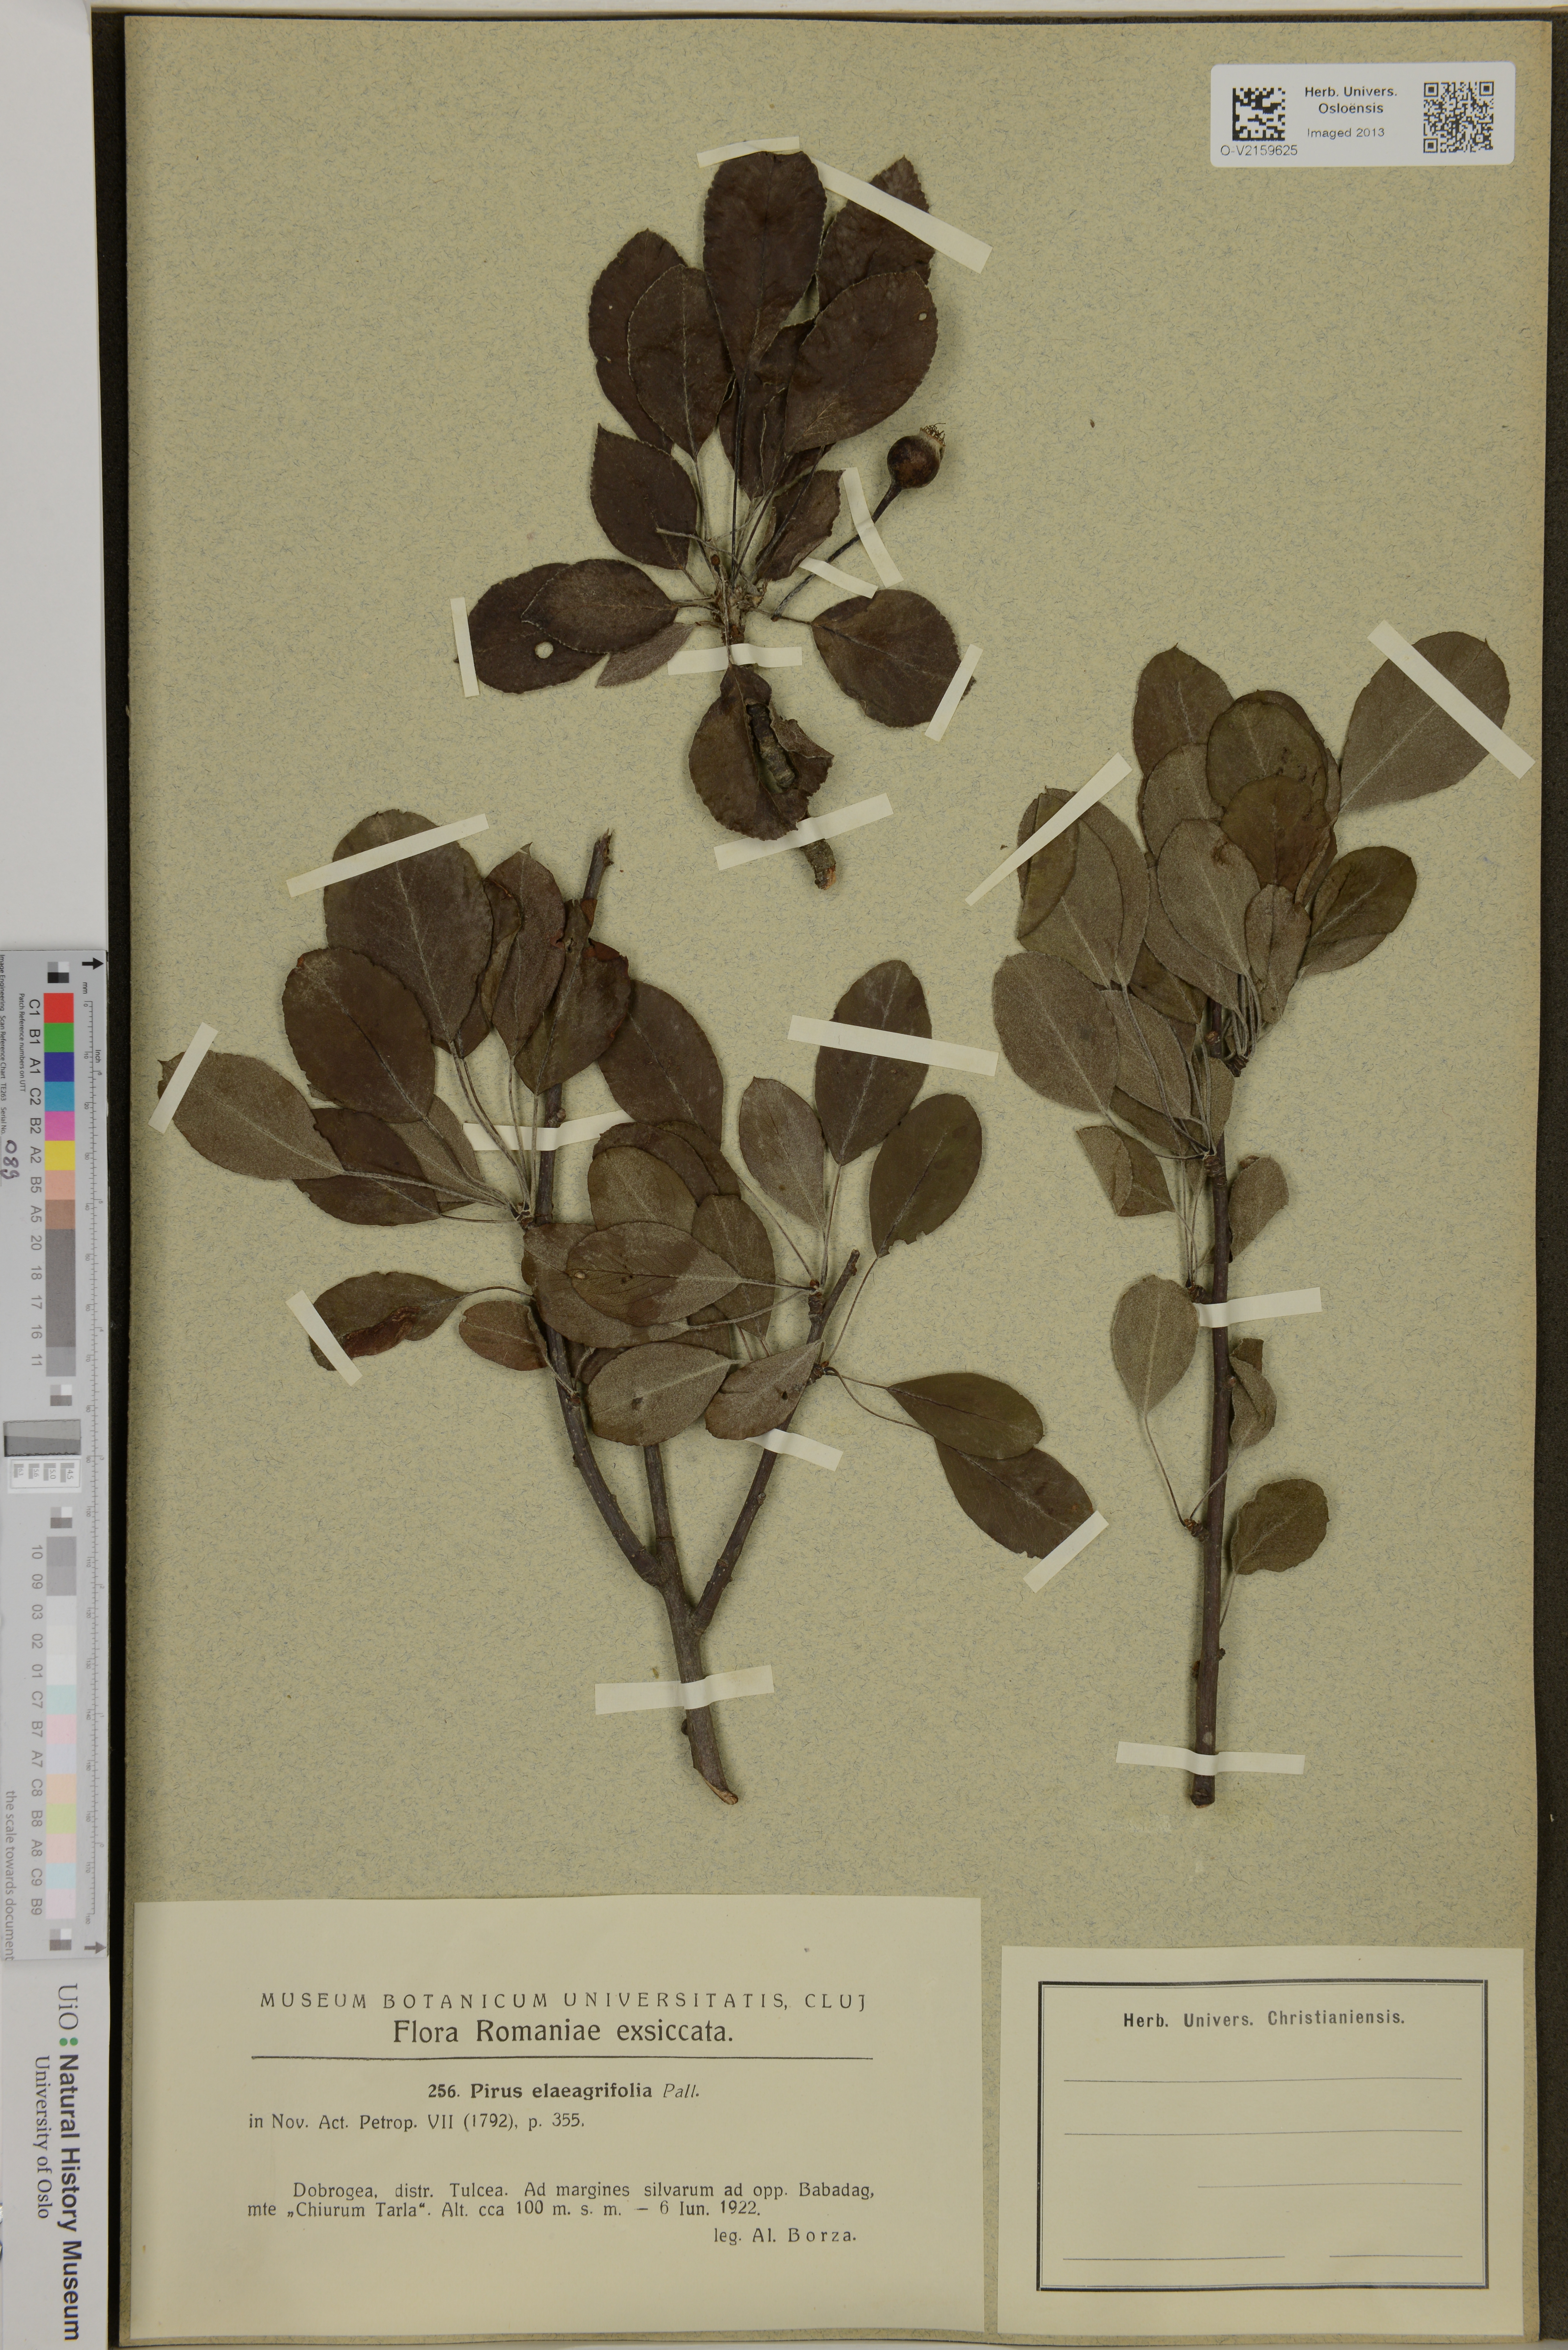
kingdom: Plantae
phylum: Tracheophyta
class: Magnoliopsida
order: Rosales
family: Rosaceae
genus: Pyrus
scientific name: Pyrus elaeagnifolia
